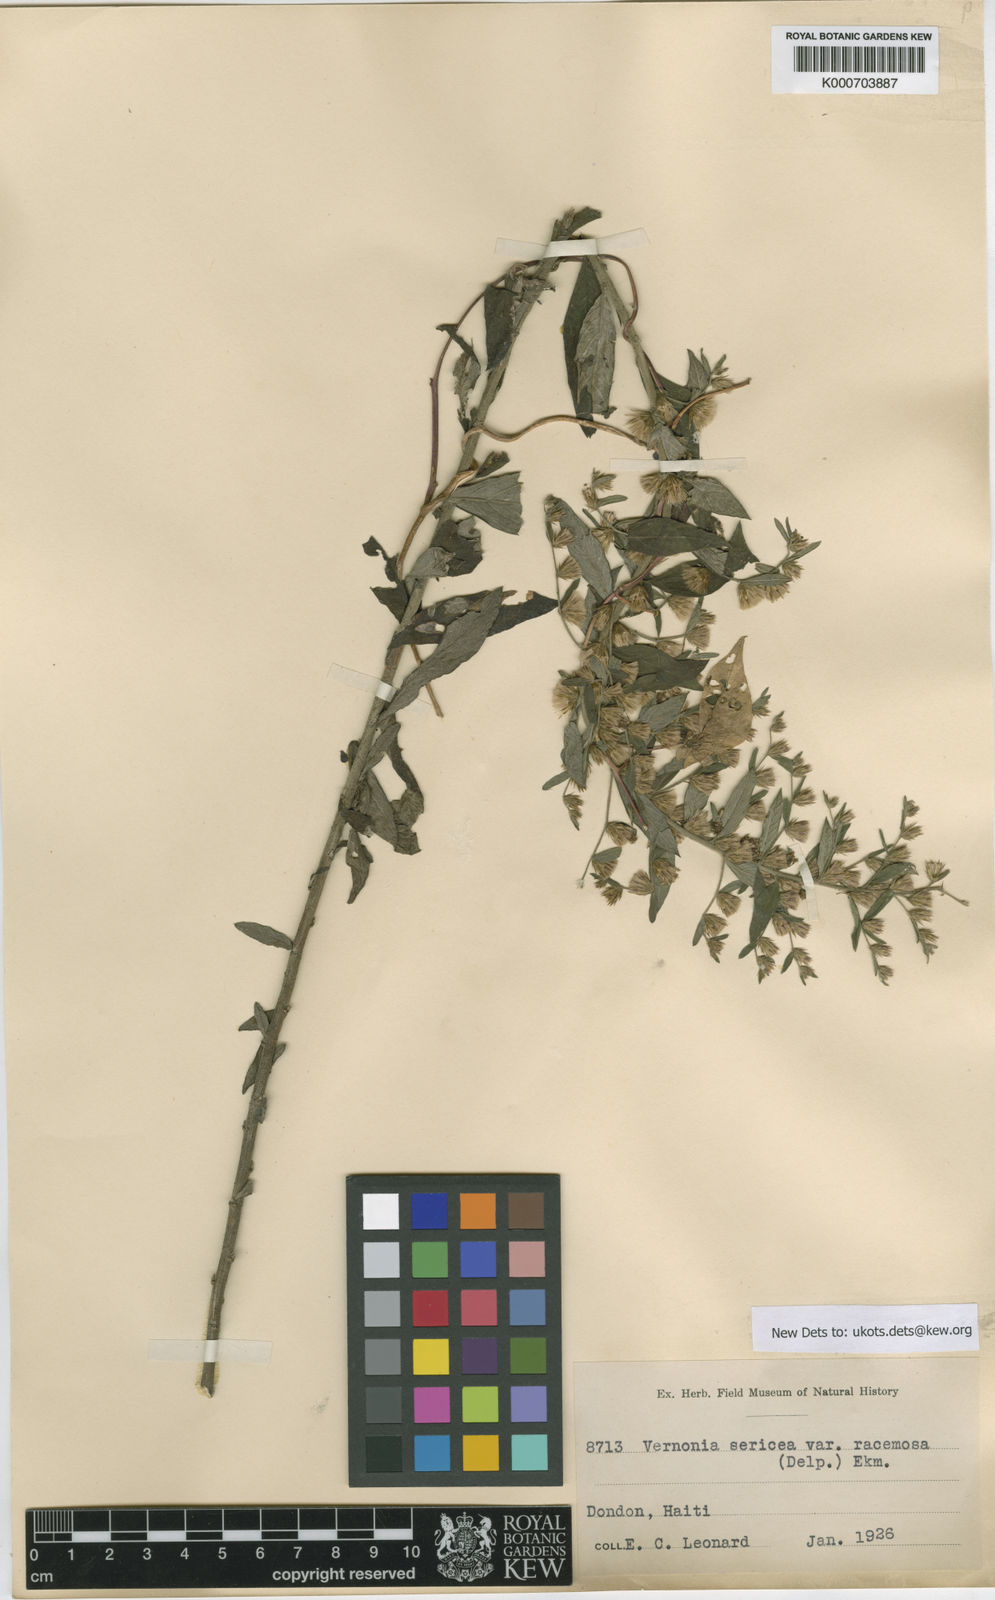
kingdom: Plantae
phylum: Tracheophyta
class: Magnoliopsida
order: Asterales
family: Asteraceae
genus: Lepidaploa
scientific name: Lepidaploa sericea
